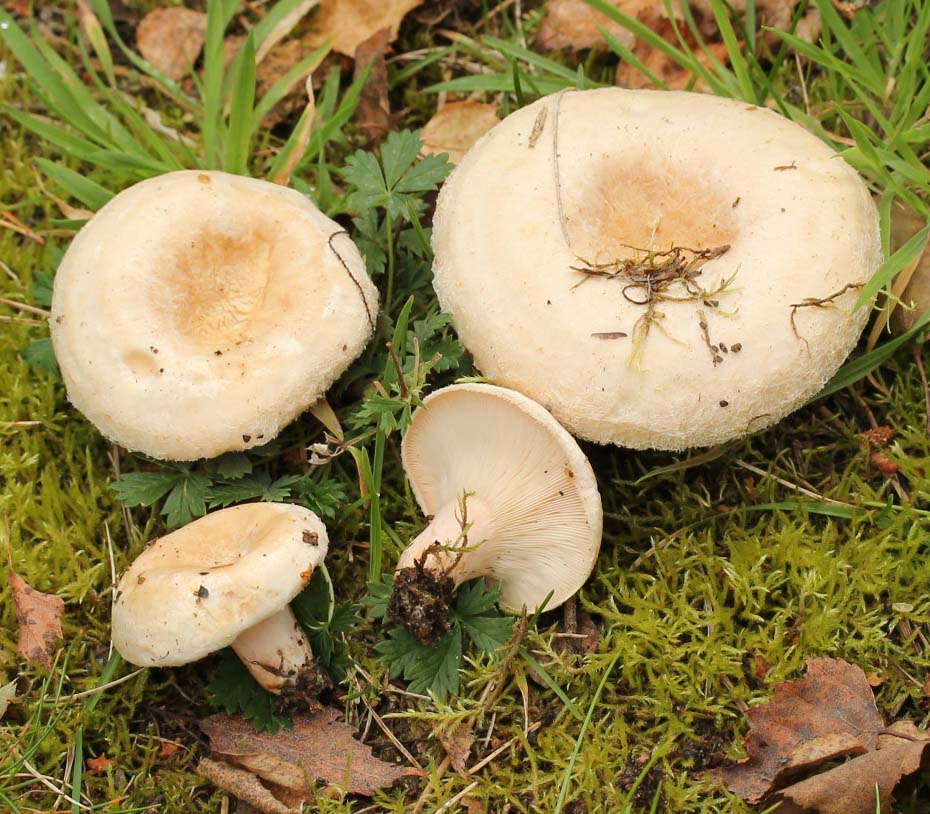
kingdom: Fungi
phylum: Basidiomycota
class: Agaricomycetes
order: Russulales
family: Russulaceae
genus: Lactarius
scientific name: Lactarius pubescens
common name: dunet mælkehat
